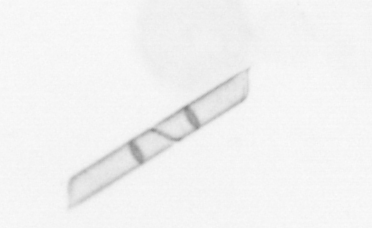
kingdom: Chromista
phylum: Ochrophyta
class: Bacillariophyceae
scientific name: Bacillariophyceae
